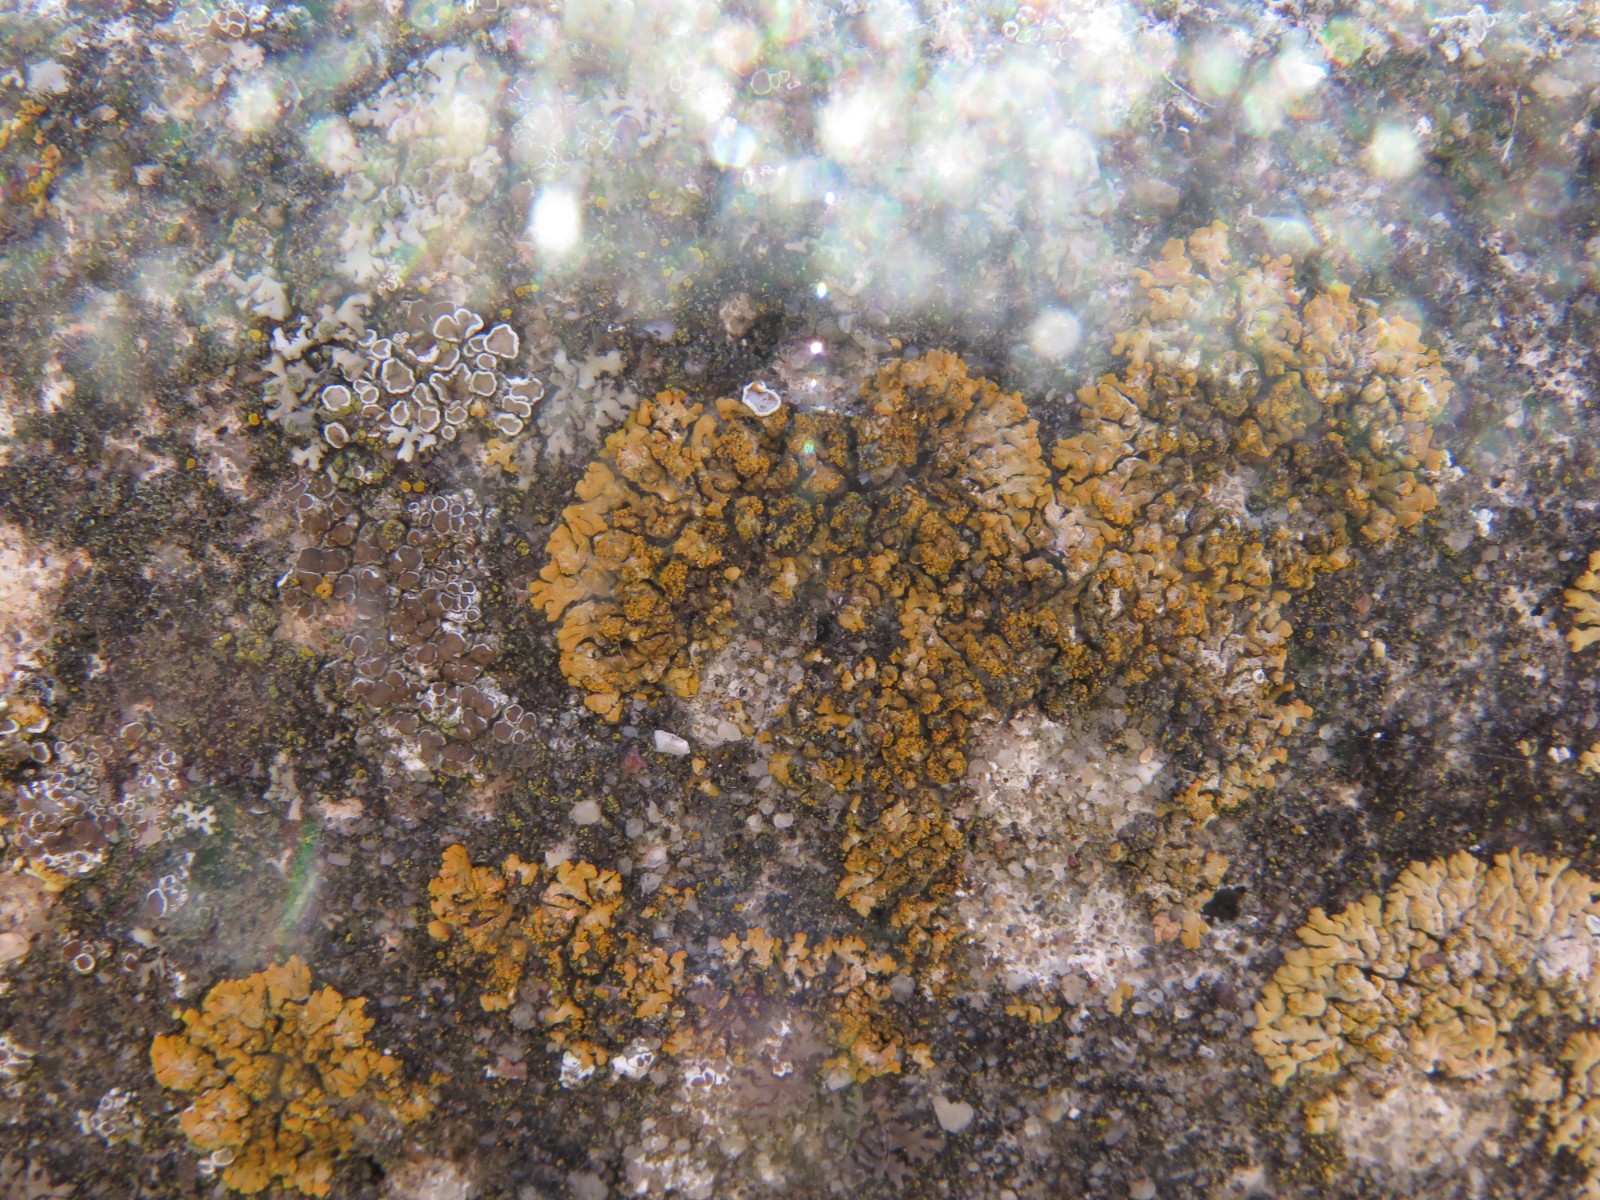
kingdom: Fungi
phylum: Ascomycota
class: Lecanoromycetes
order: Teloschistales
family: Teloschistaceae
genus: Calogaya
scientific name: Calogaya decipiens
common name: knudret orangelav
